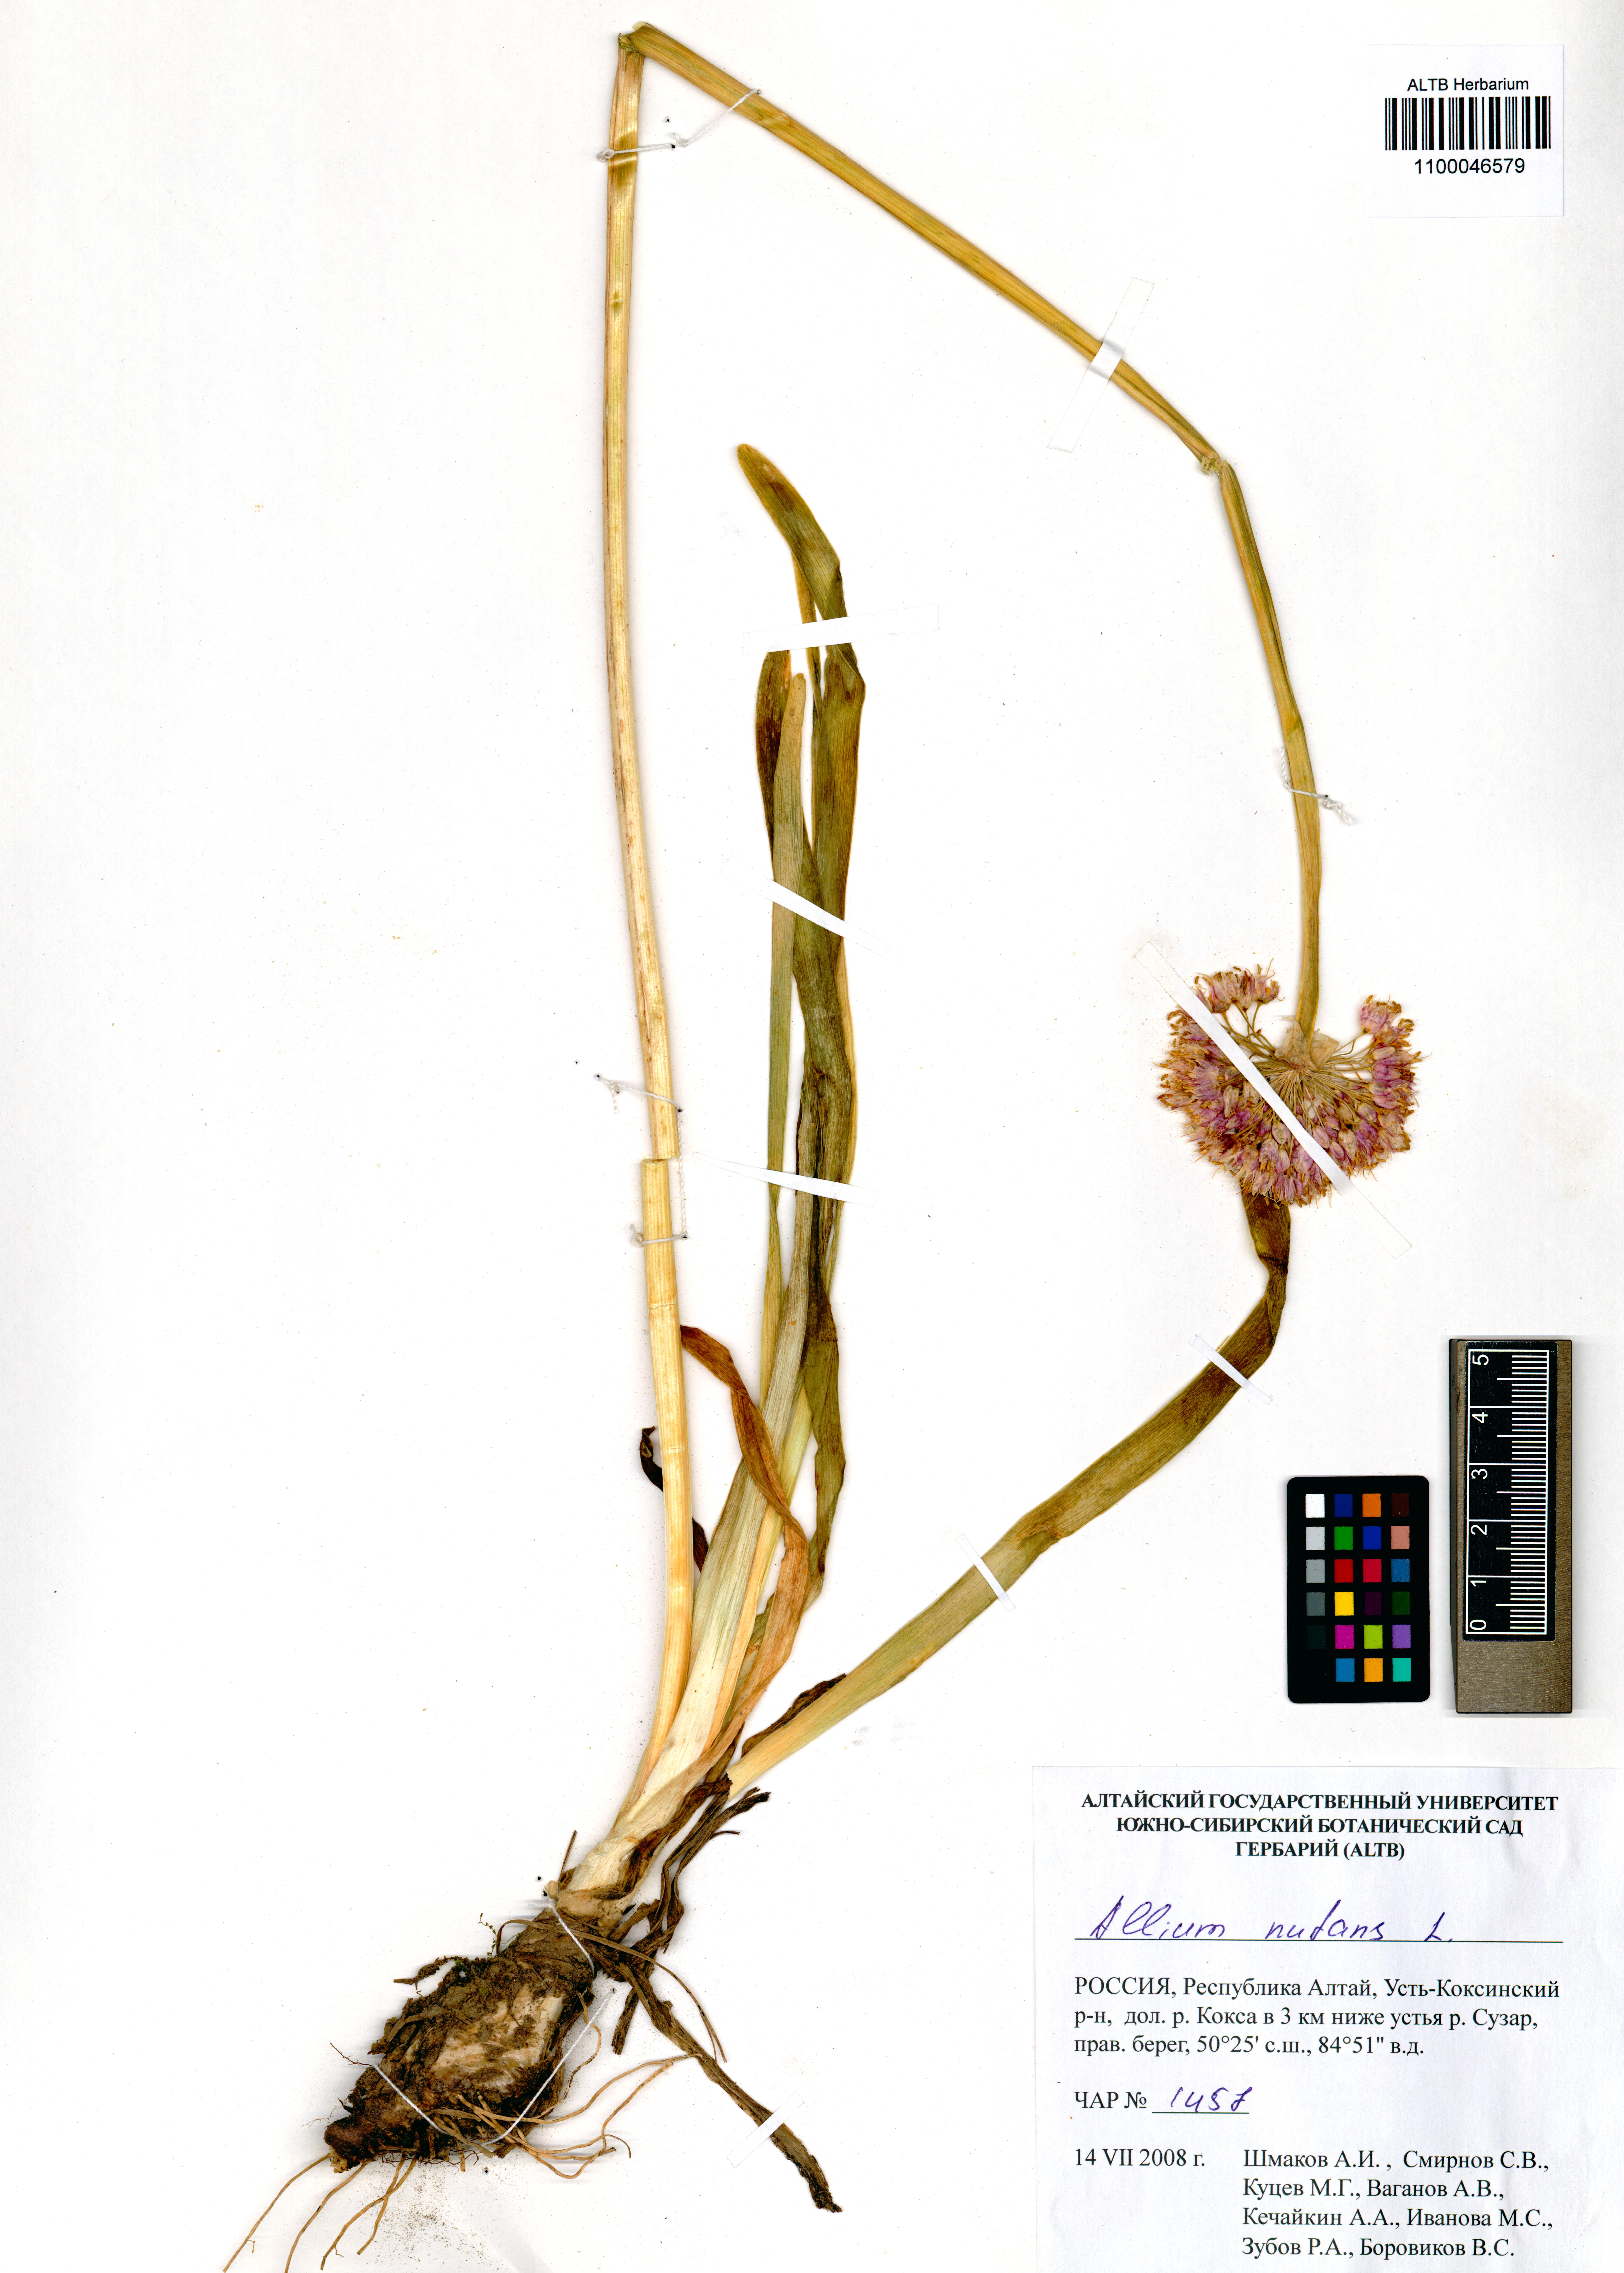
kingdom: Plantae
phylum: Tracheophyta
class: Liliopsida
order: Asparagales
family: Amaryllidaceae
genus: Allium
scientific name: Allium nutans
